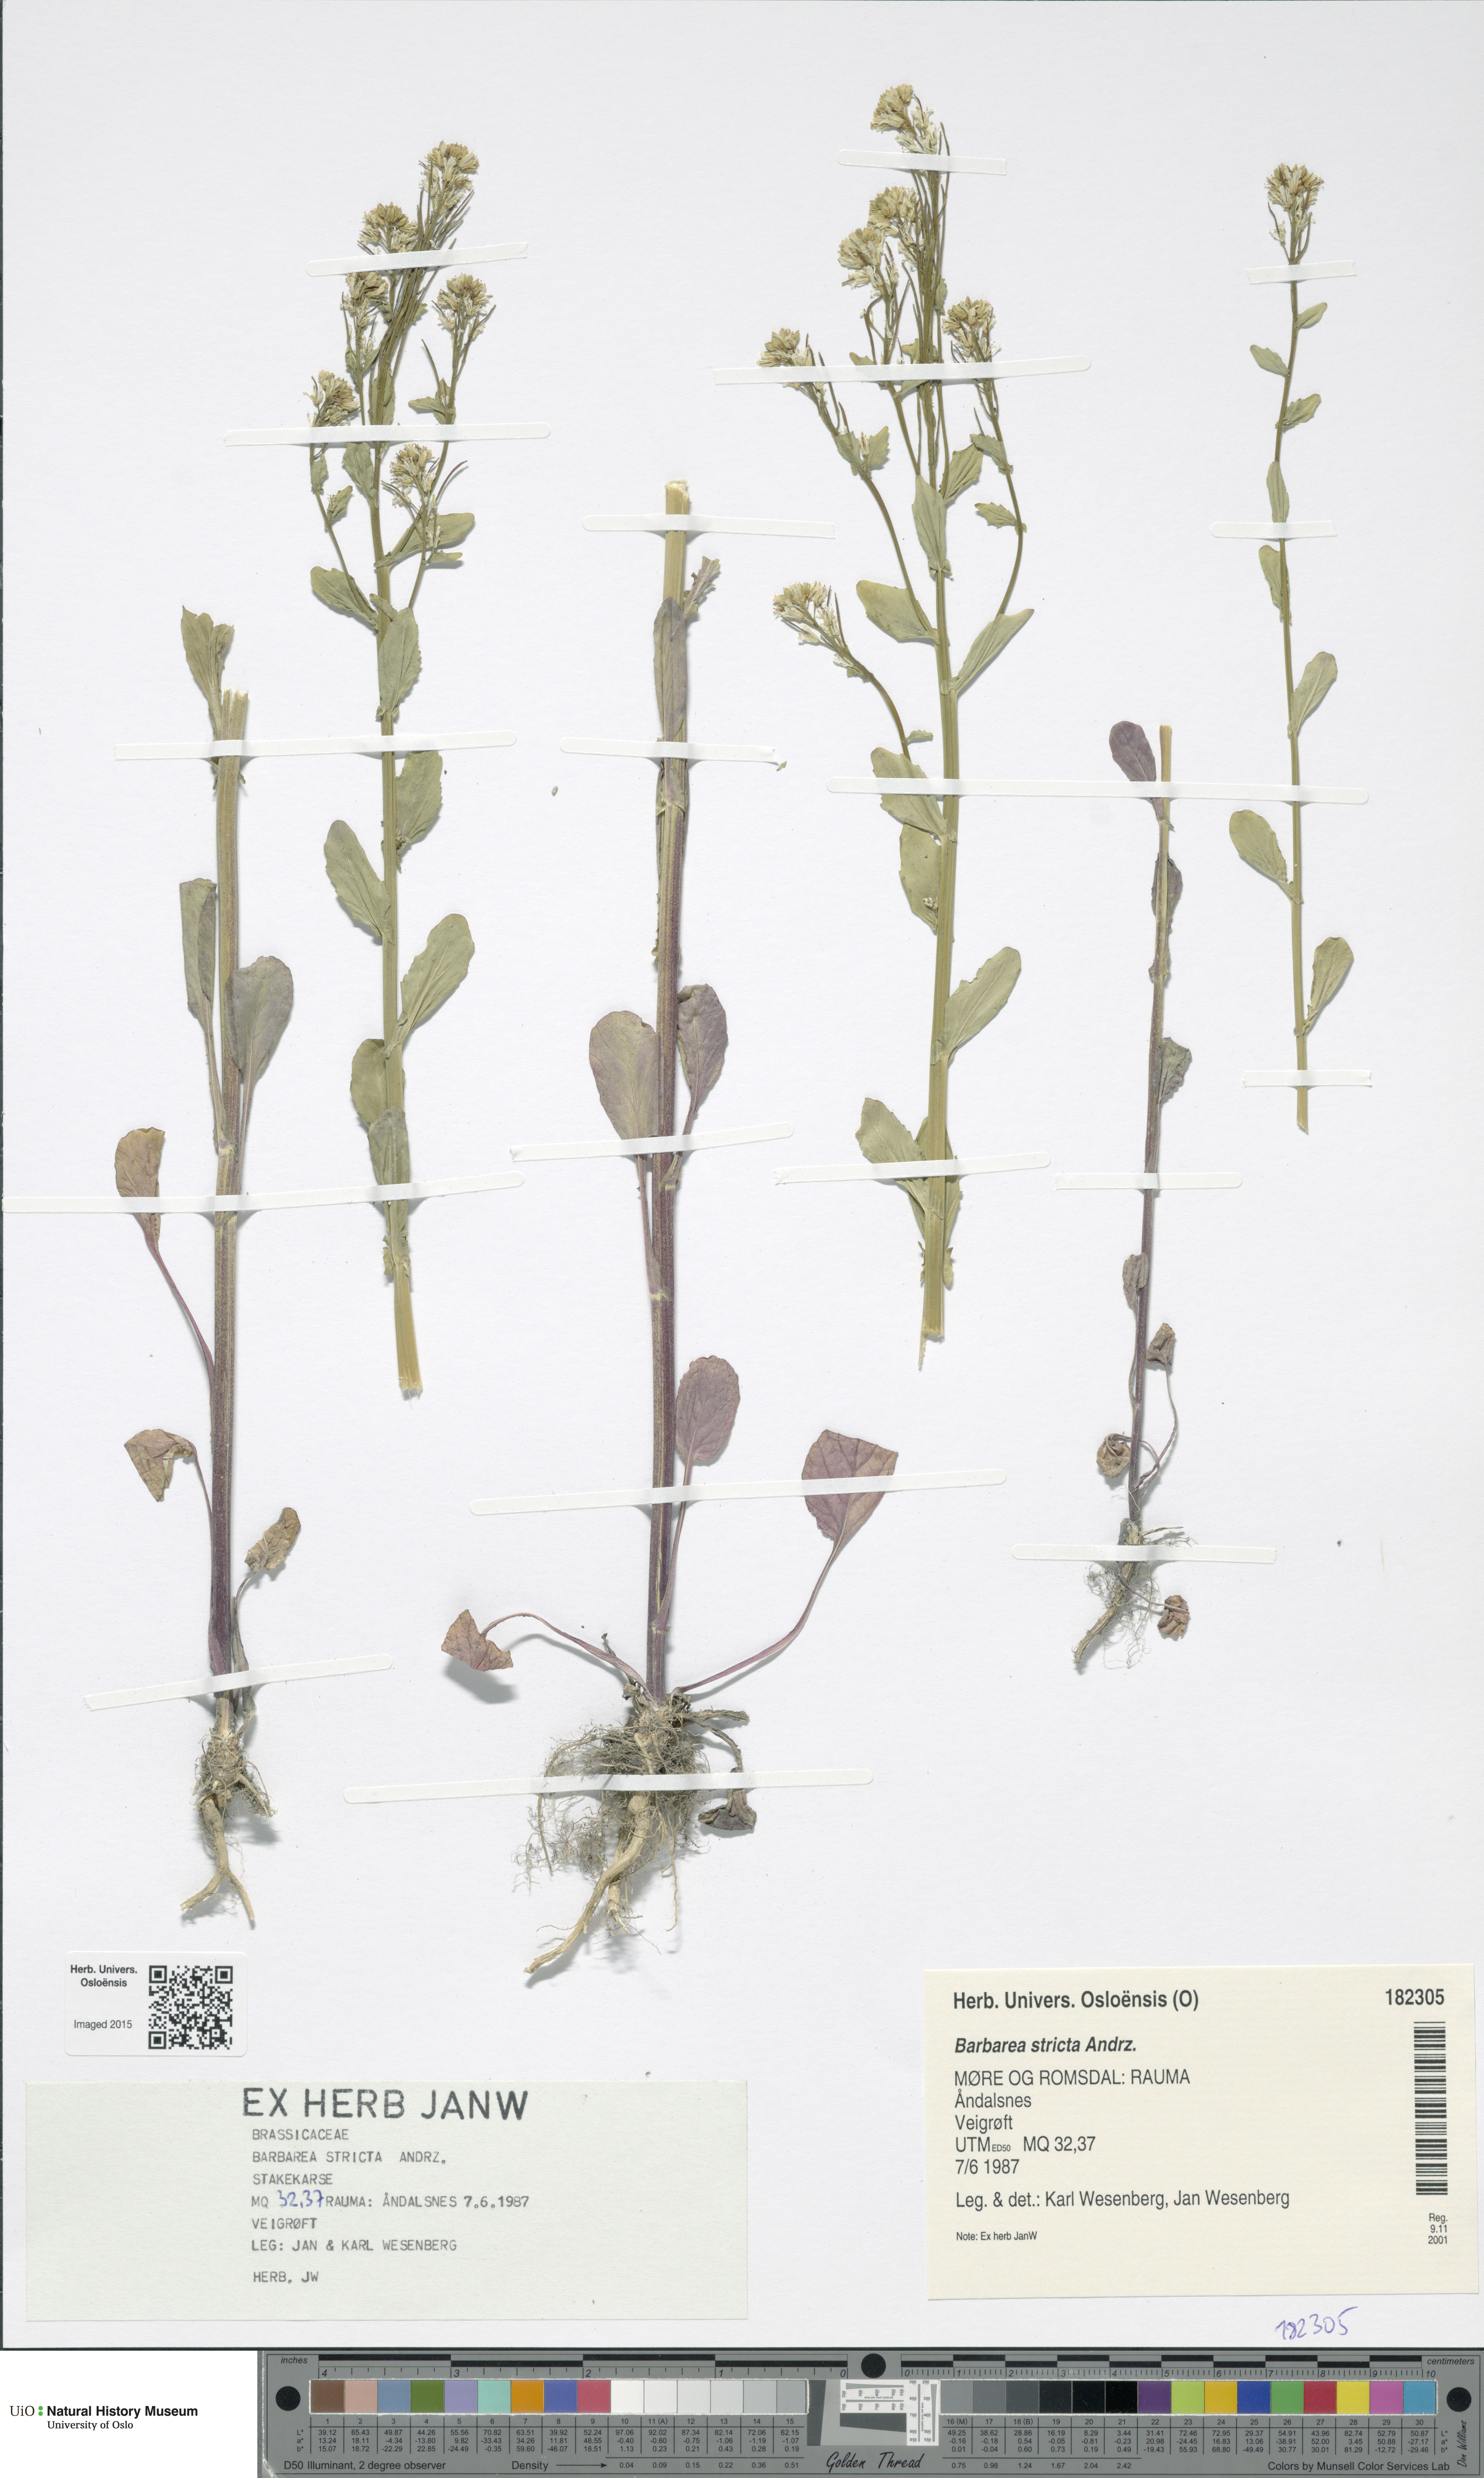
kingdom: Plantae
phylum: Tracheophyta
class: Magnoliopsida
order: Brassicales
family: Brassicaceae
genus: Barbarea
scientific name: Barbarea stricta
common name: Small-flowered winter-cress
